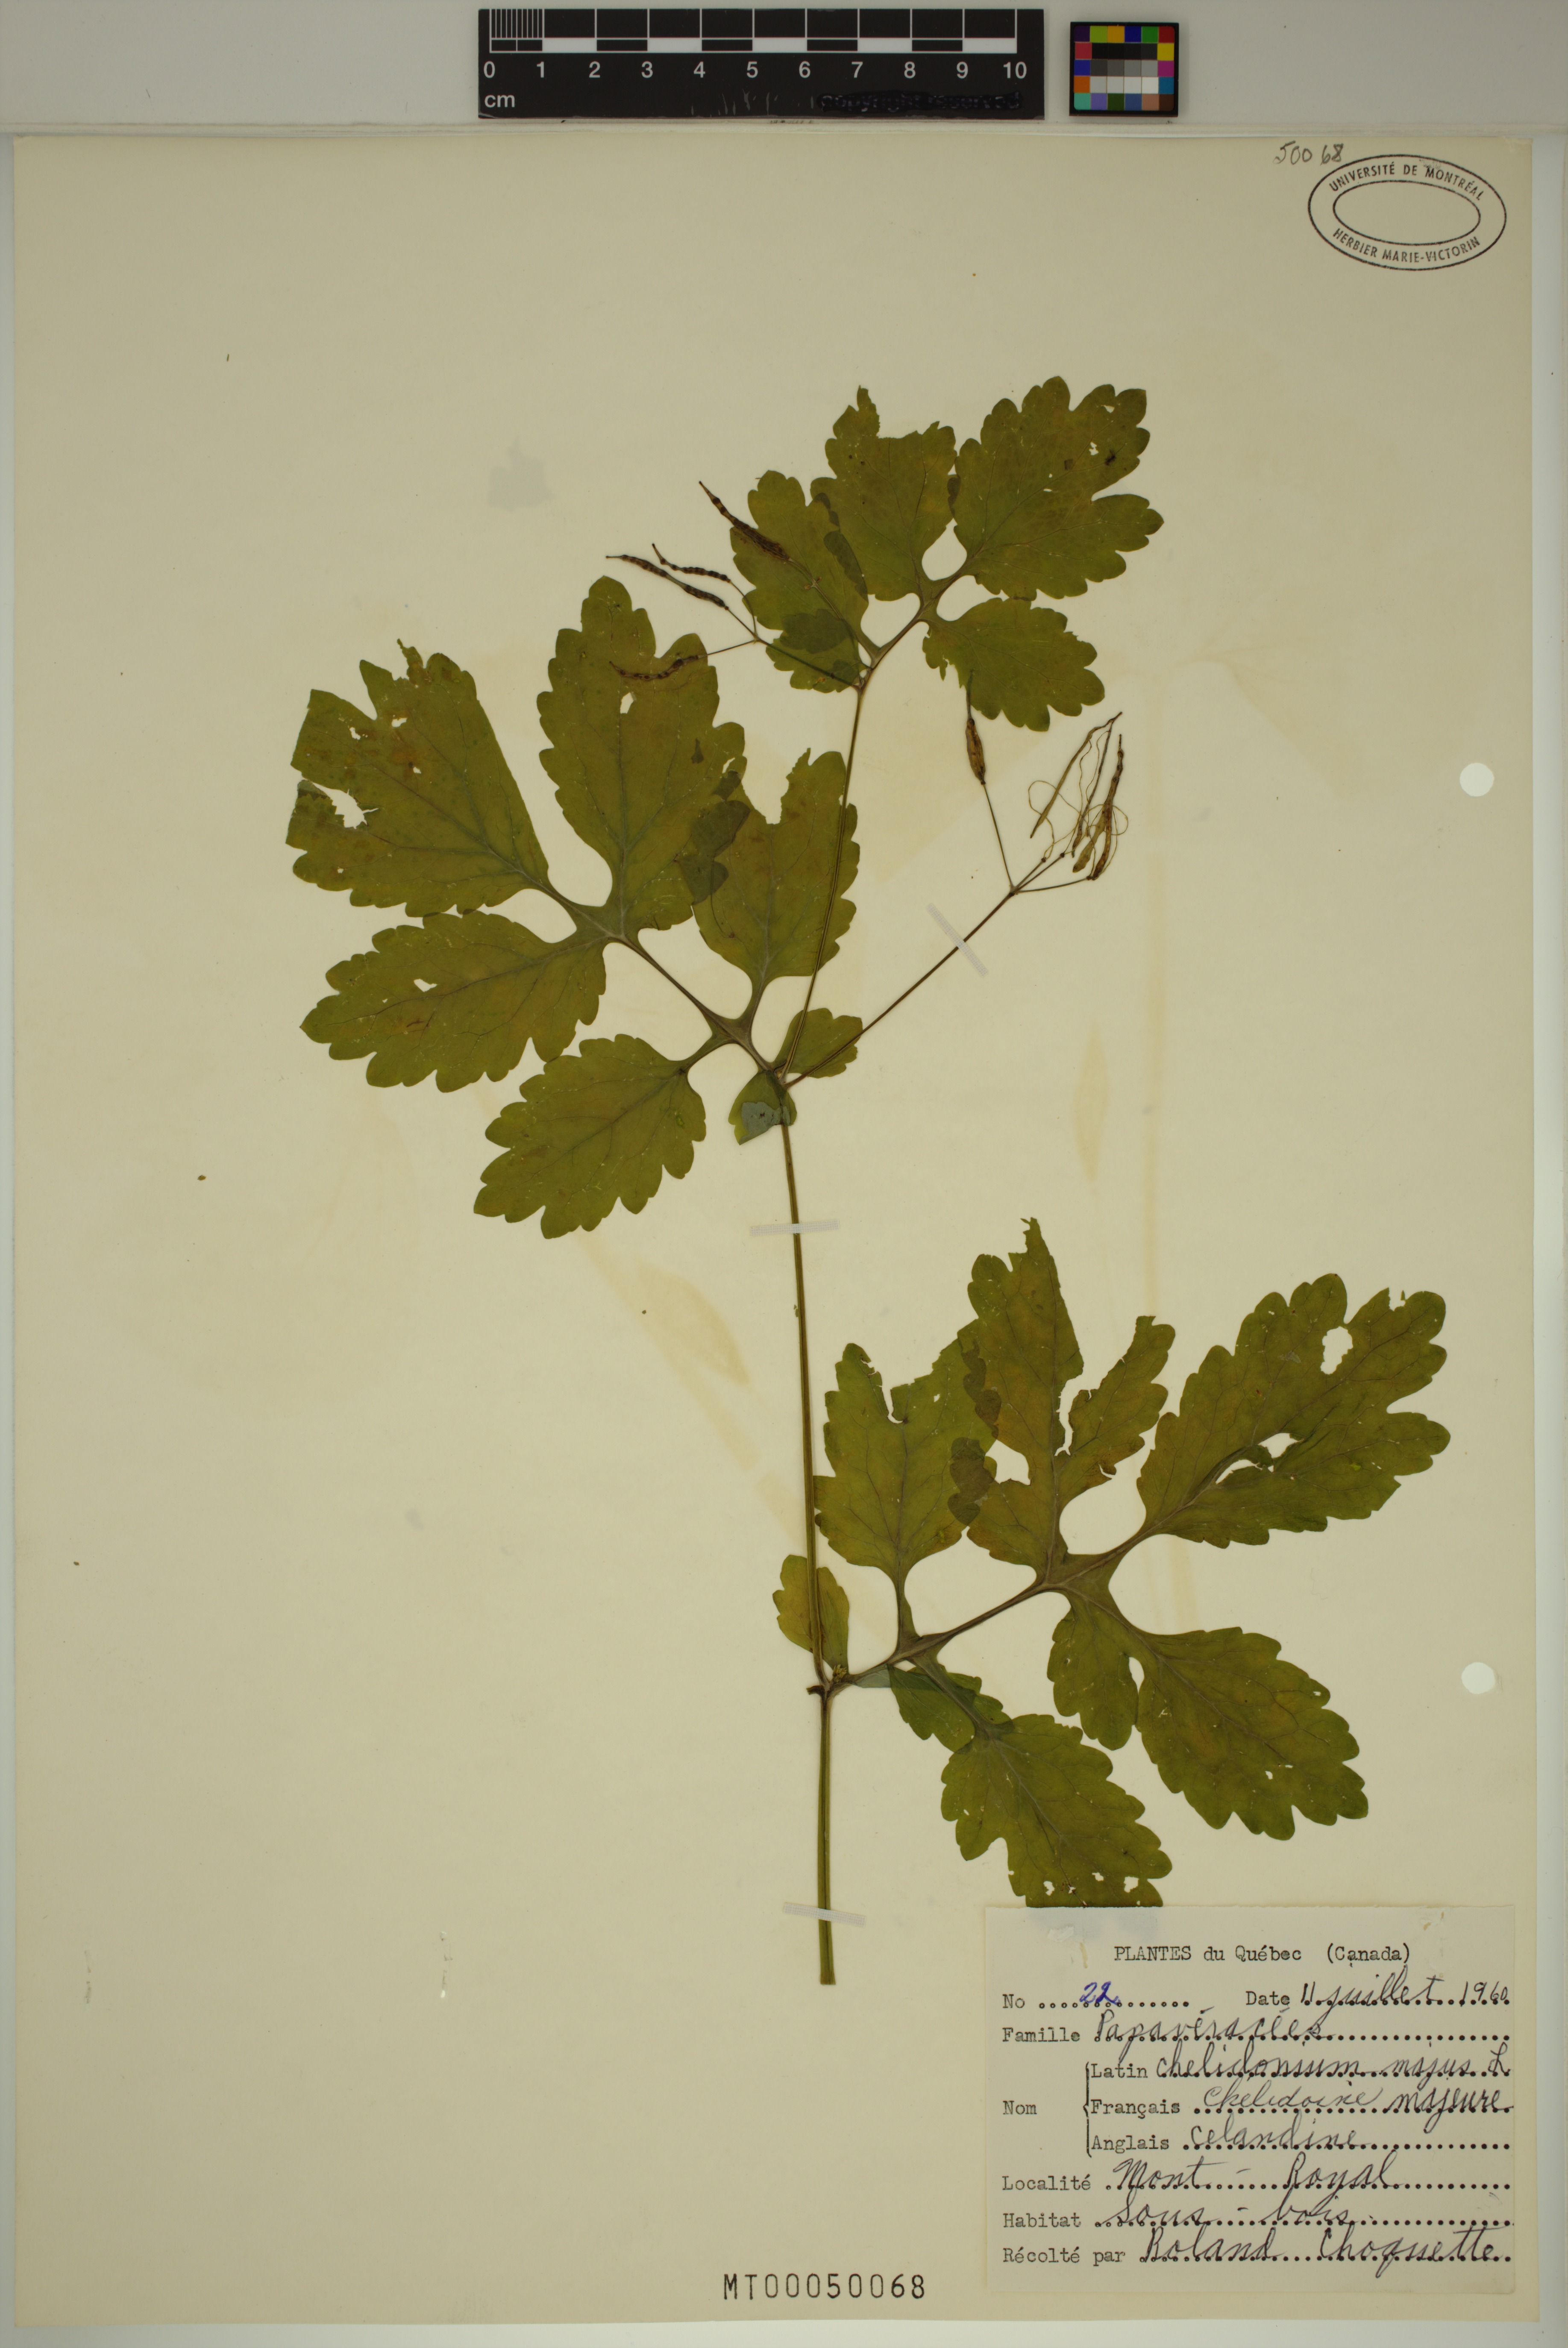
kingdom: Plantae
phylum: Tracheophyta
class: Magnoliopsida
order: Ranunculales
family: Papaveraceae
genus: Chelidonium
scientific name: Chelidonium majus
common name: Greater celandine
